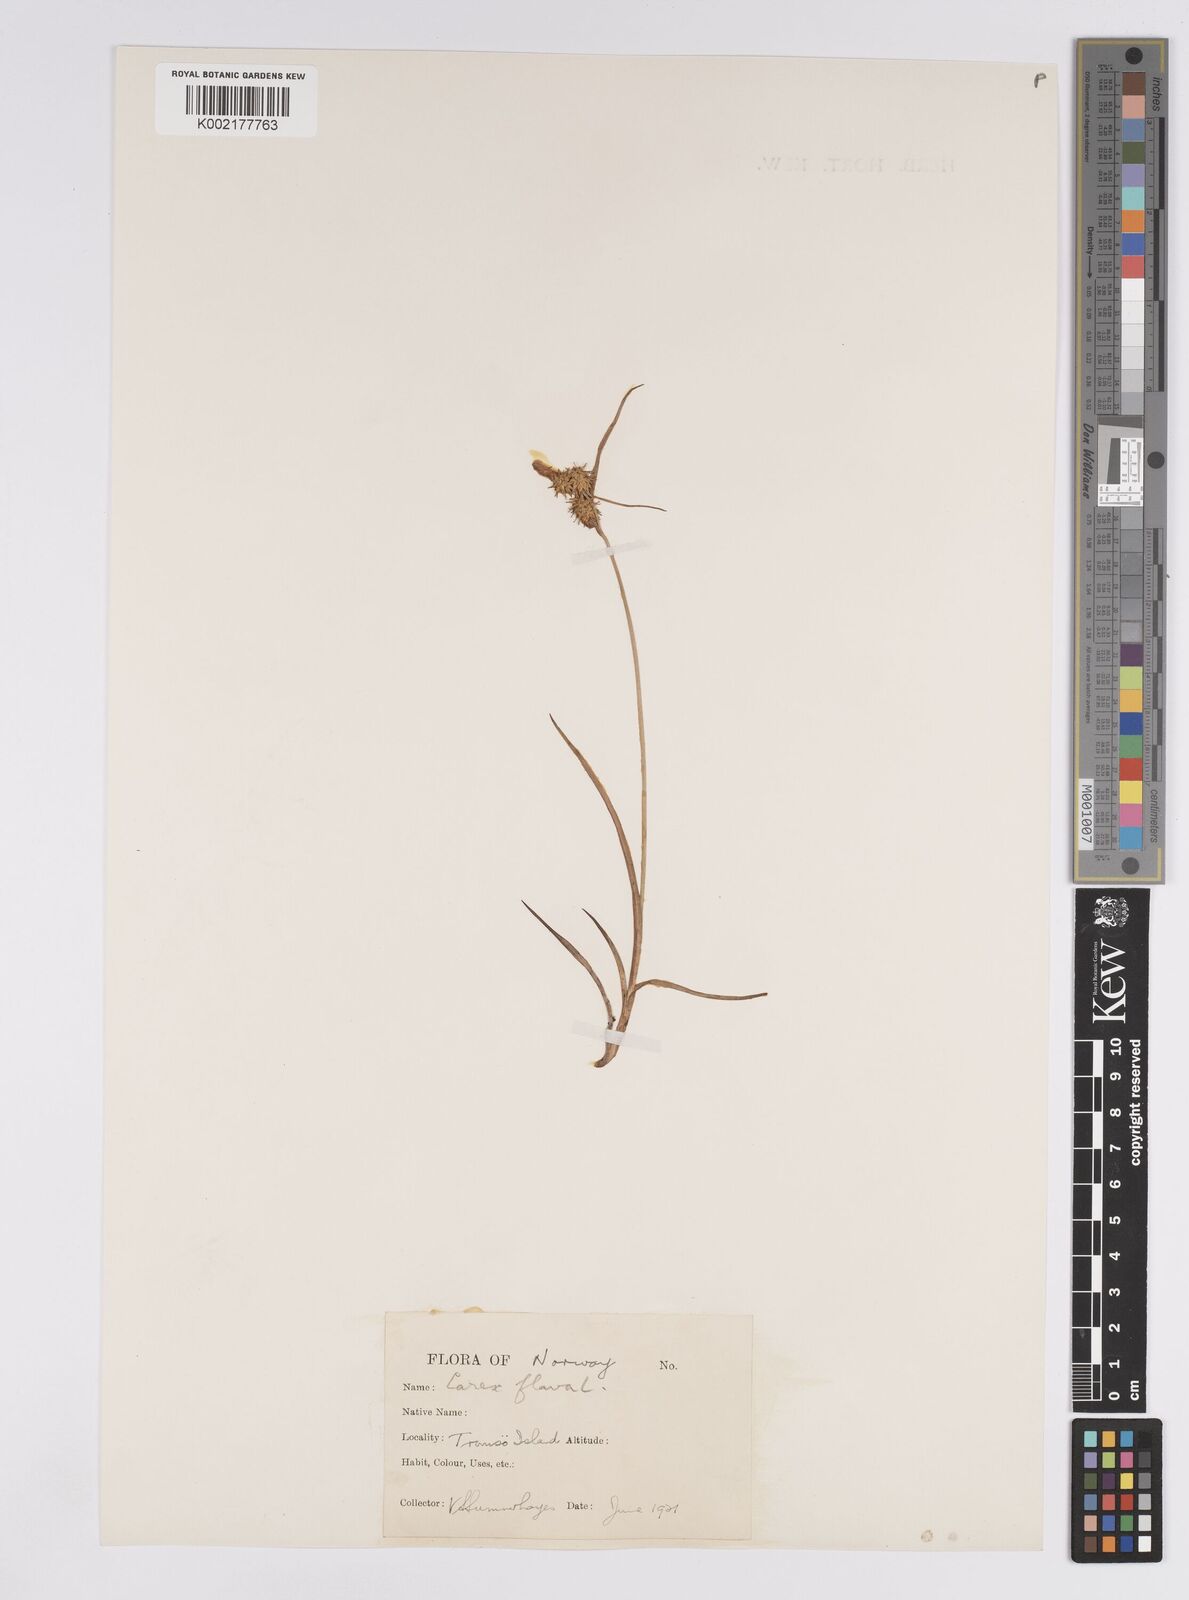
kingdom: Plantae
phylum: Tracheophyta
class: Liliopsida
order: Poales
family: Cyperaceae
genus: Carex
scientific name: Carex flava
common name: Large yellow-sedge
